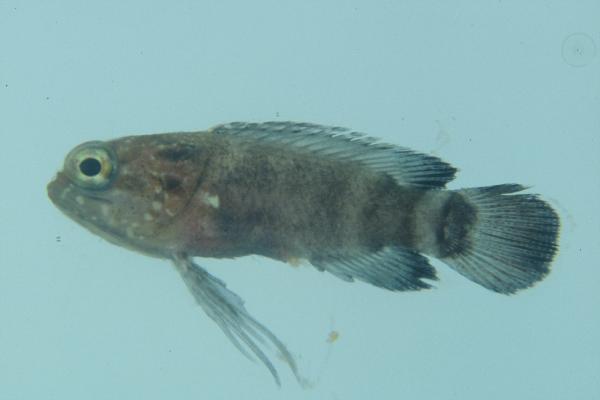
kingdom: Animalia
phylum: Chordata
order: Perciformes
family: Plesiopidae
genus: Plesiops
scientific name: Plesiops coeruleolineatus
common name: Crimsontip longfin
